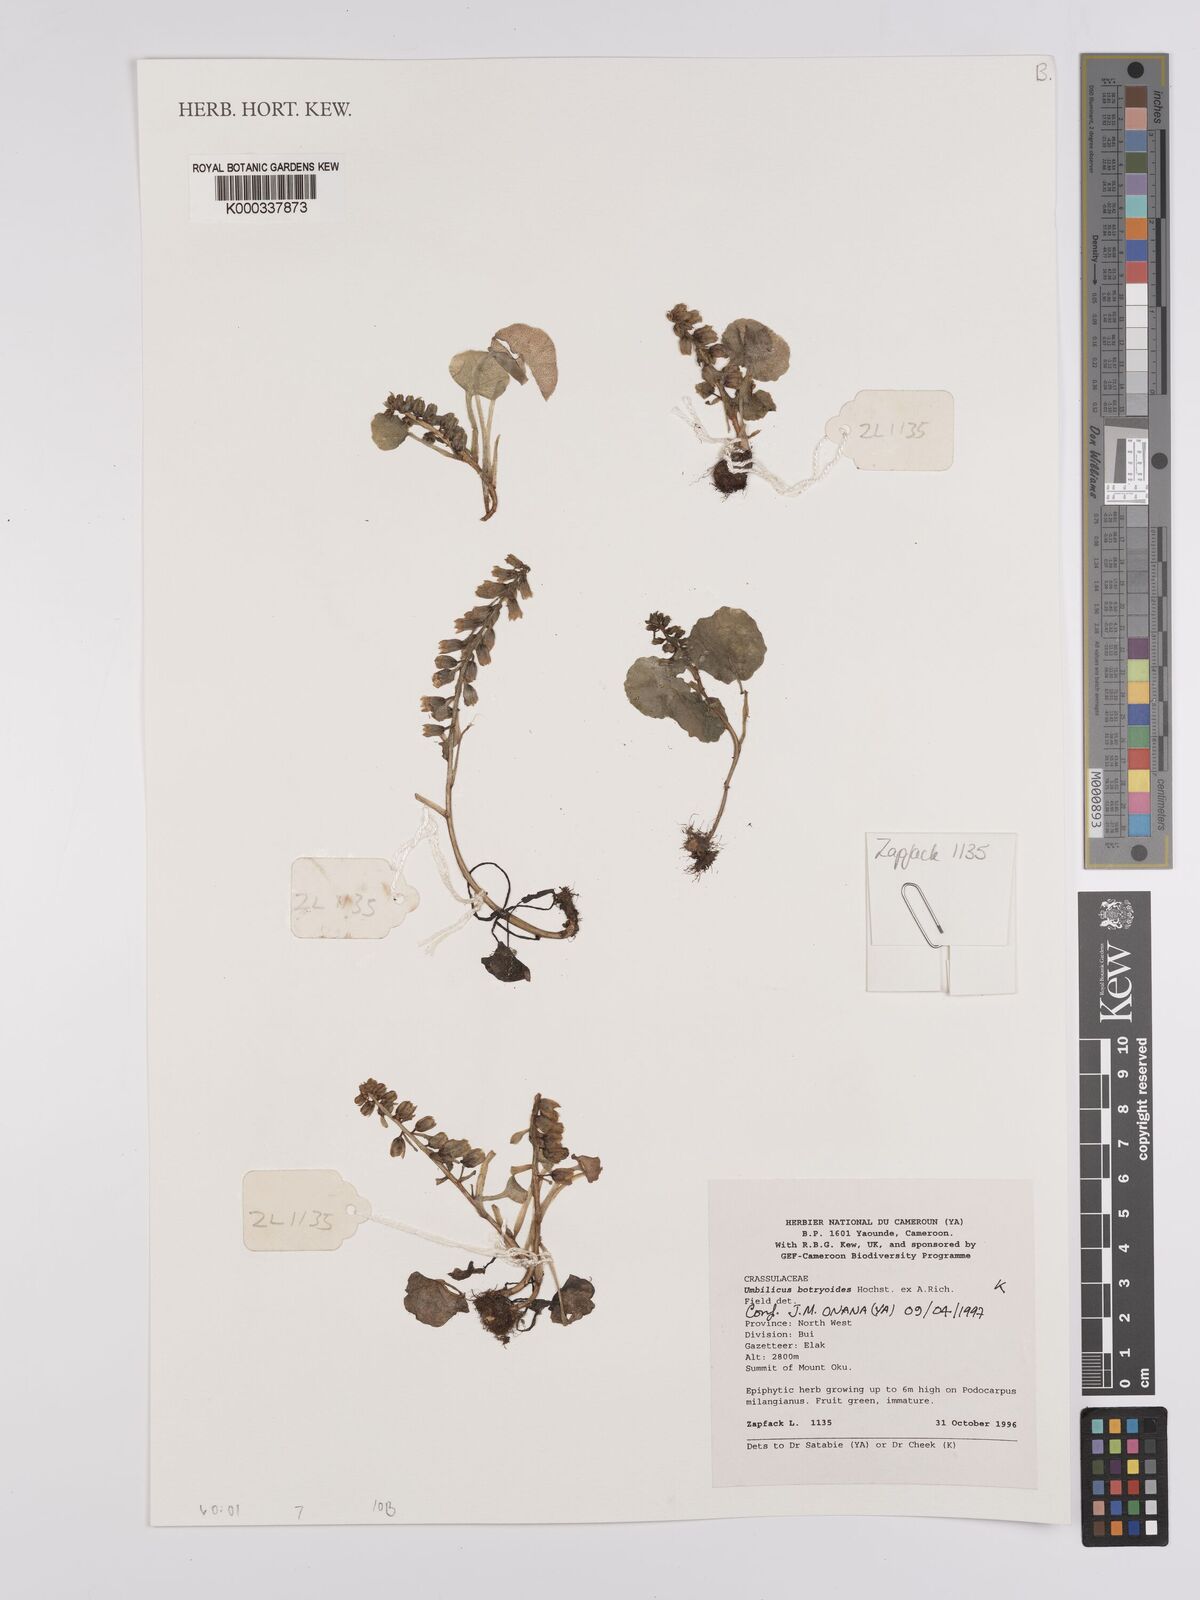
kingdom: Plantae
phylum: Tracheophyta
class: Magnoliopsida
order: Saxifragales
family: Crassulaceae
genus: Umbilicus
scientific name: Umbilicus botryoides
